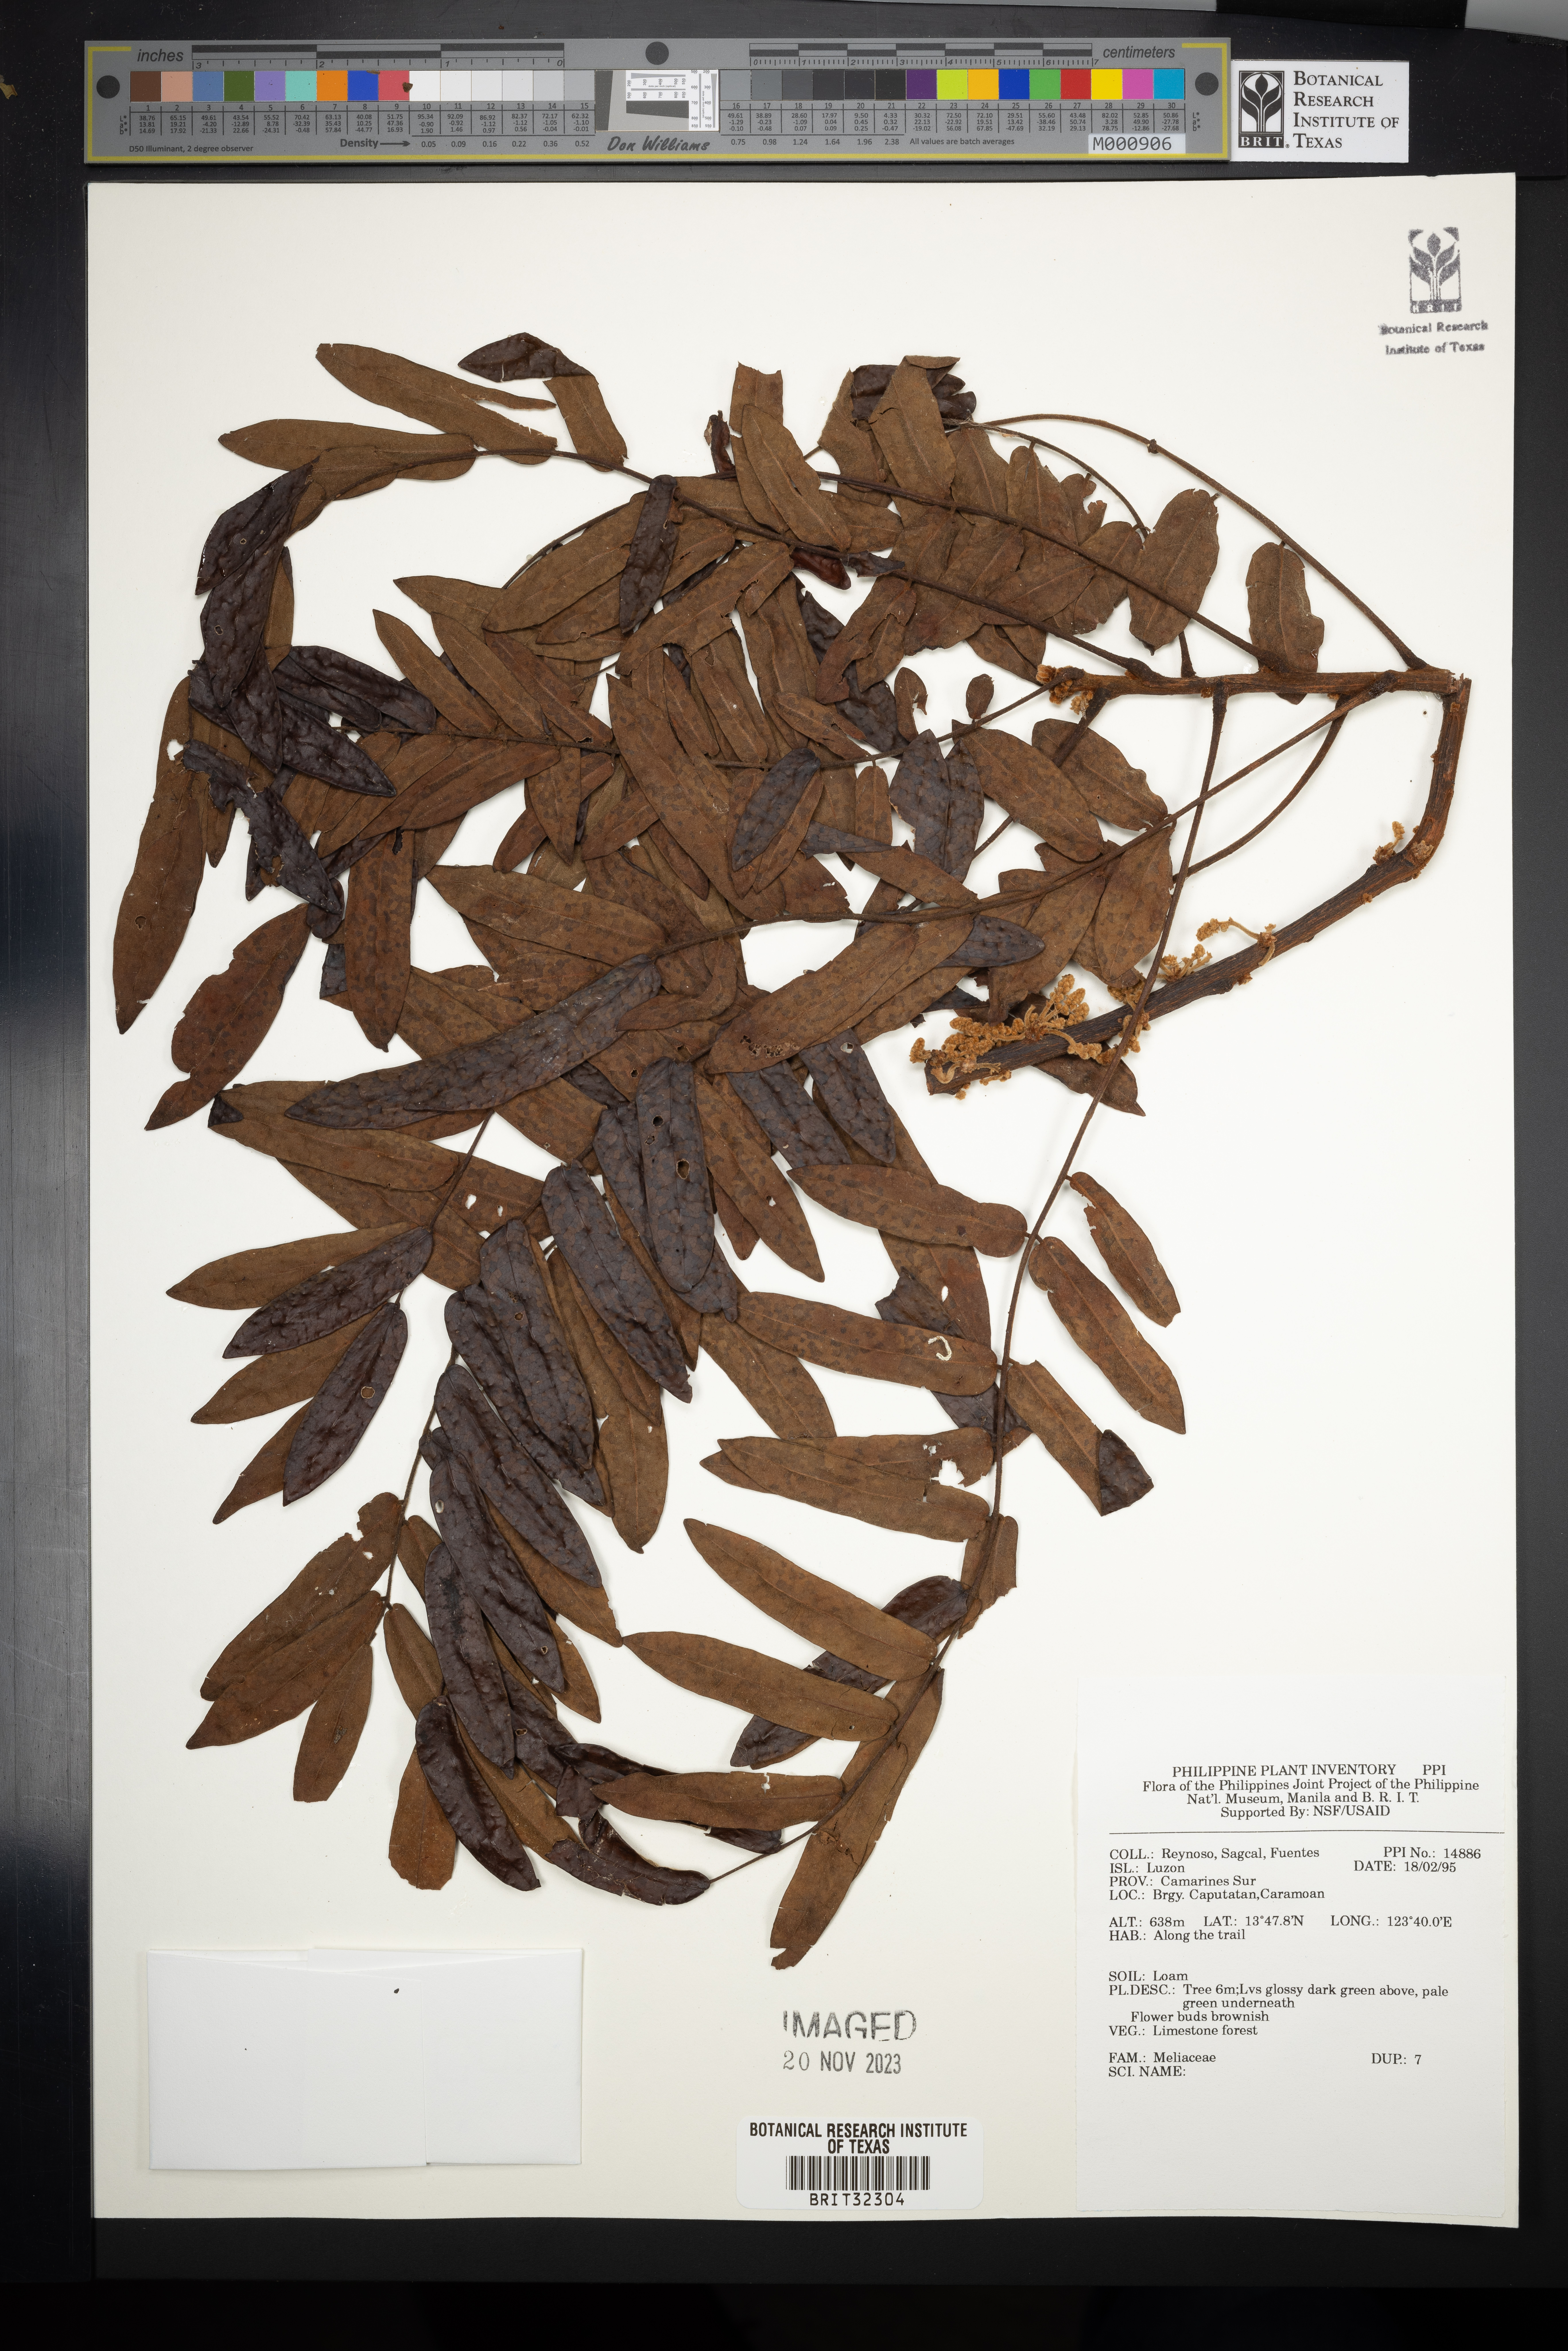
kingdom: Plantae
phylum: Tracheophyta
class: Magnoliopsida
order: Sapindales
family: Meliaceae
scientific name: Meliaceae
